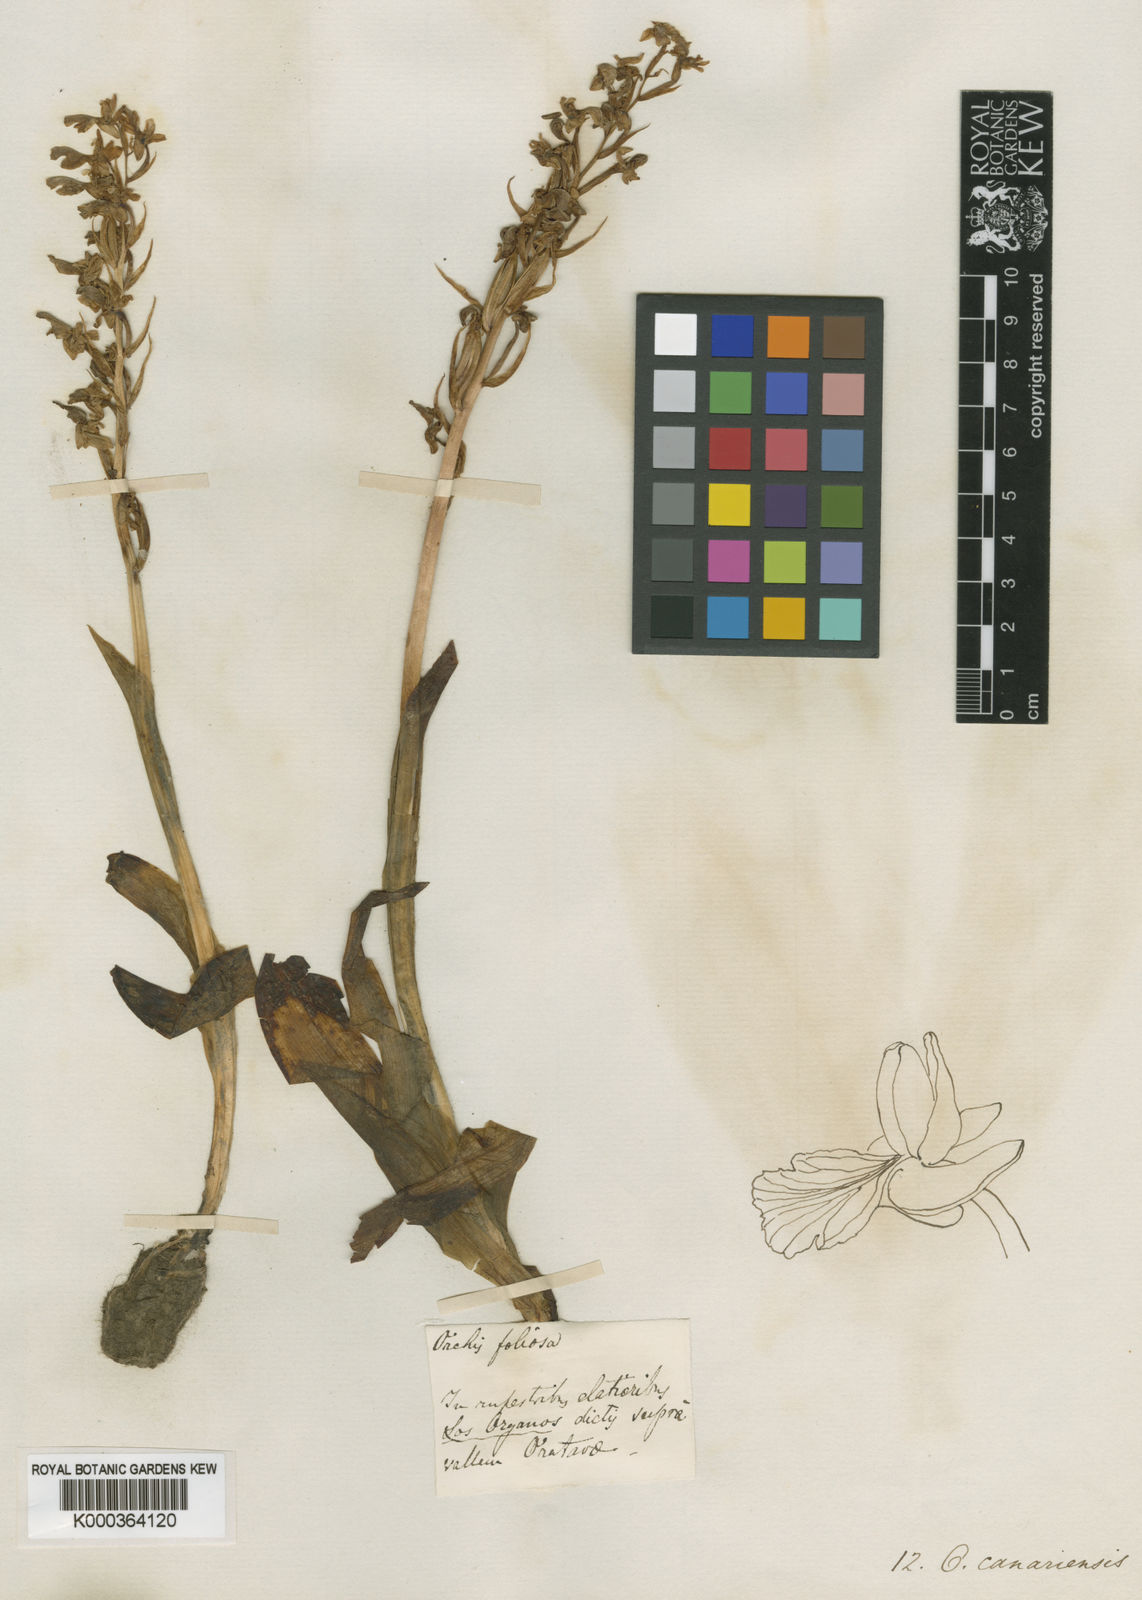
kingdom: Plantae
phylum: Tracheophyta
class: Liliopsida
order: Asparagales
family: Orchidaceae
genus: Orchis
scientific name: Orchis canariensis
